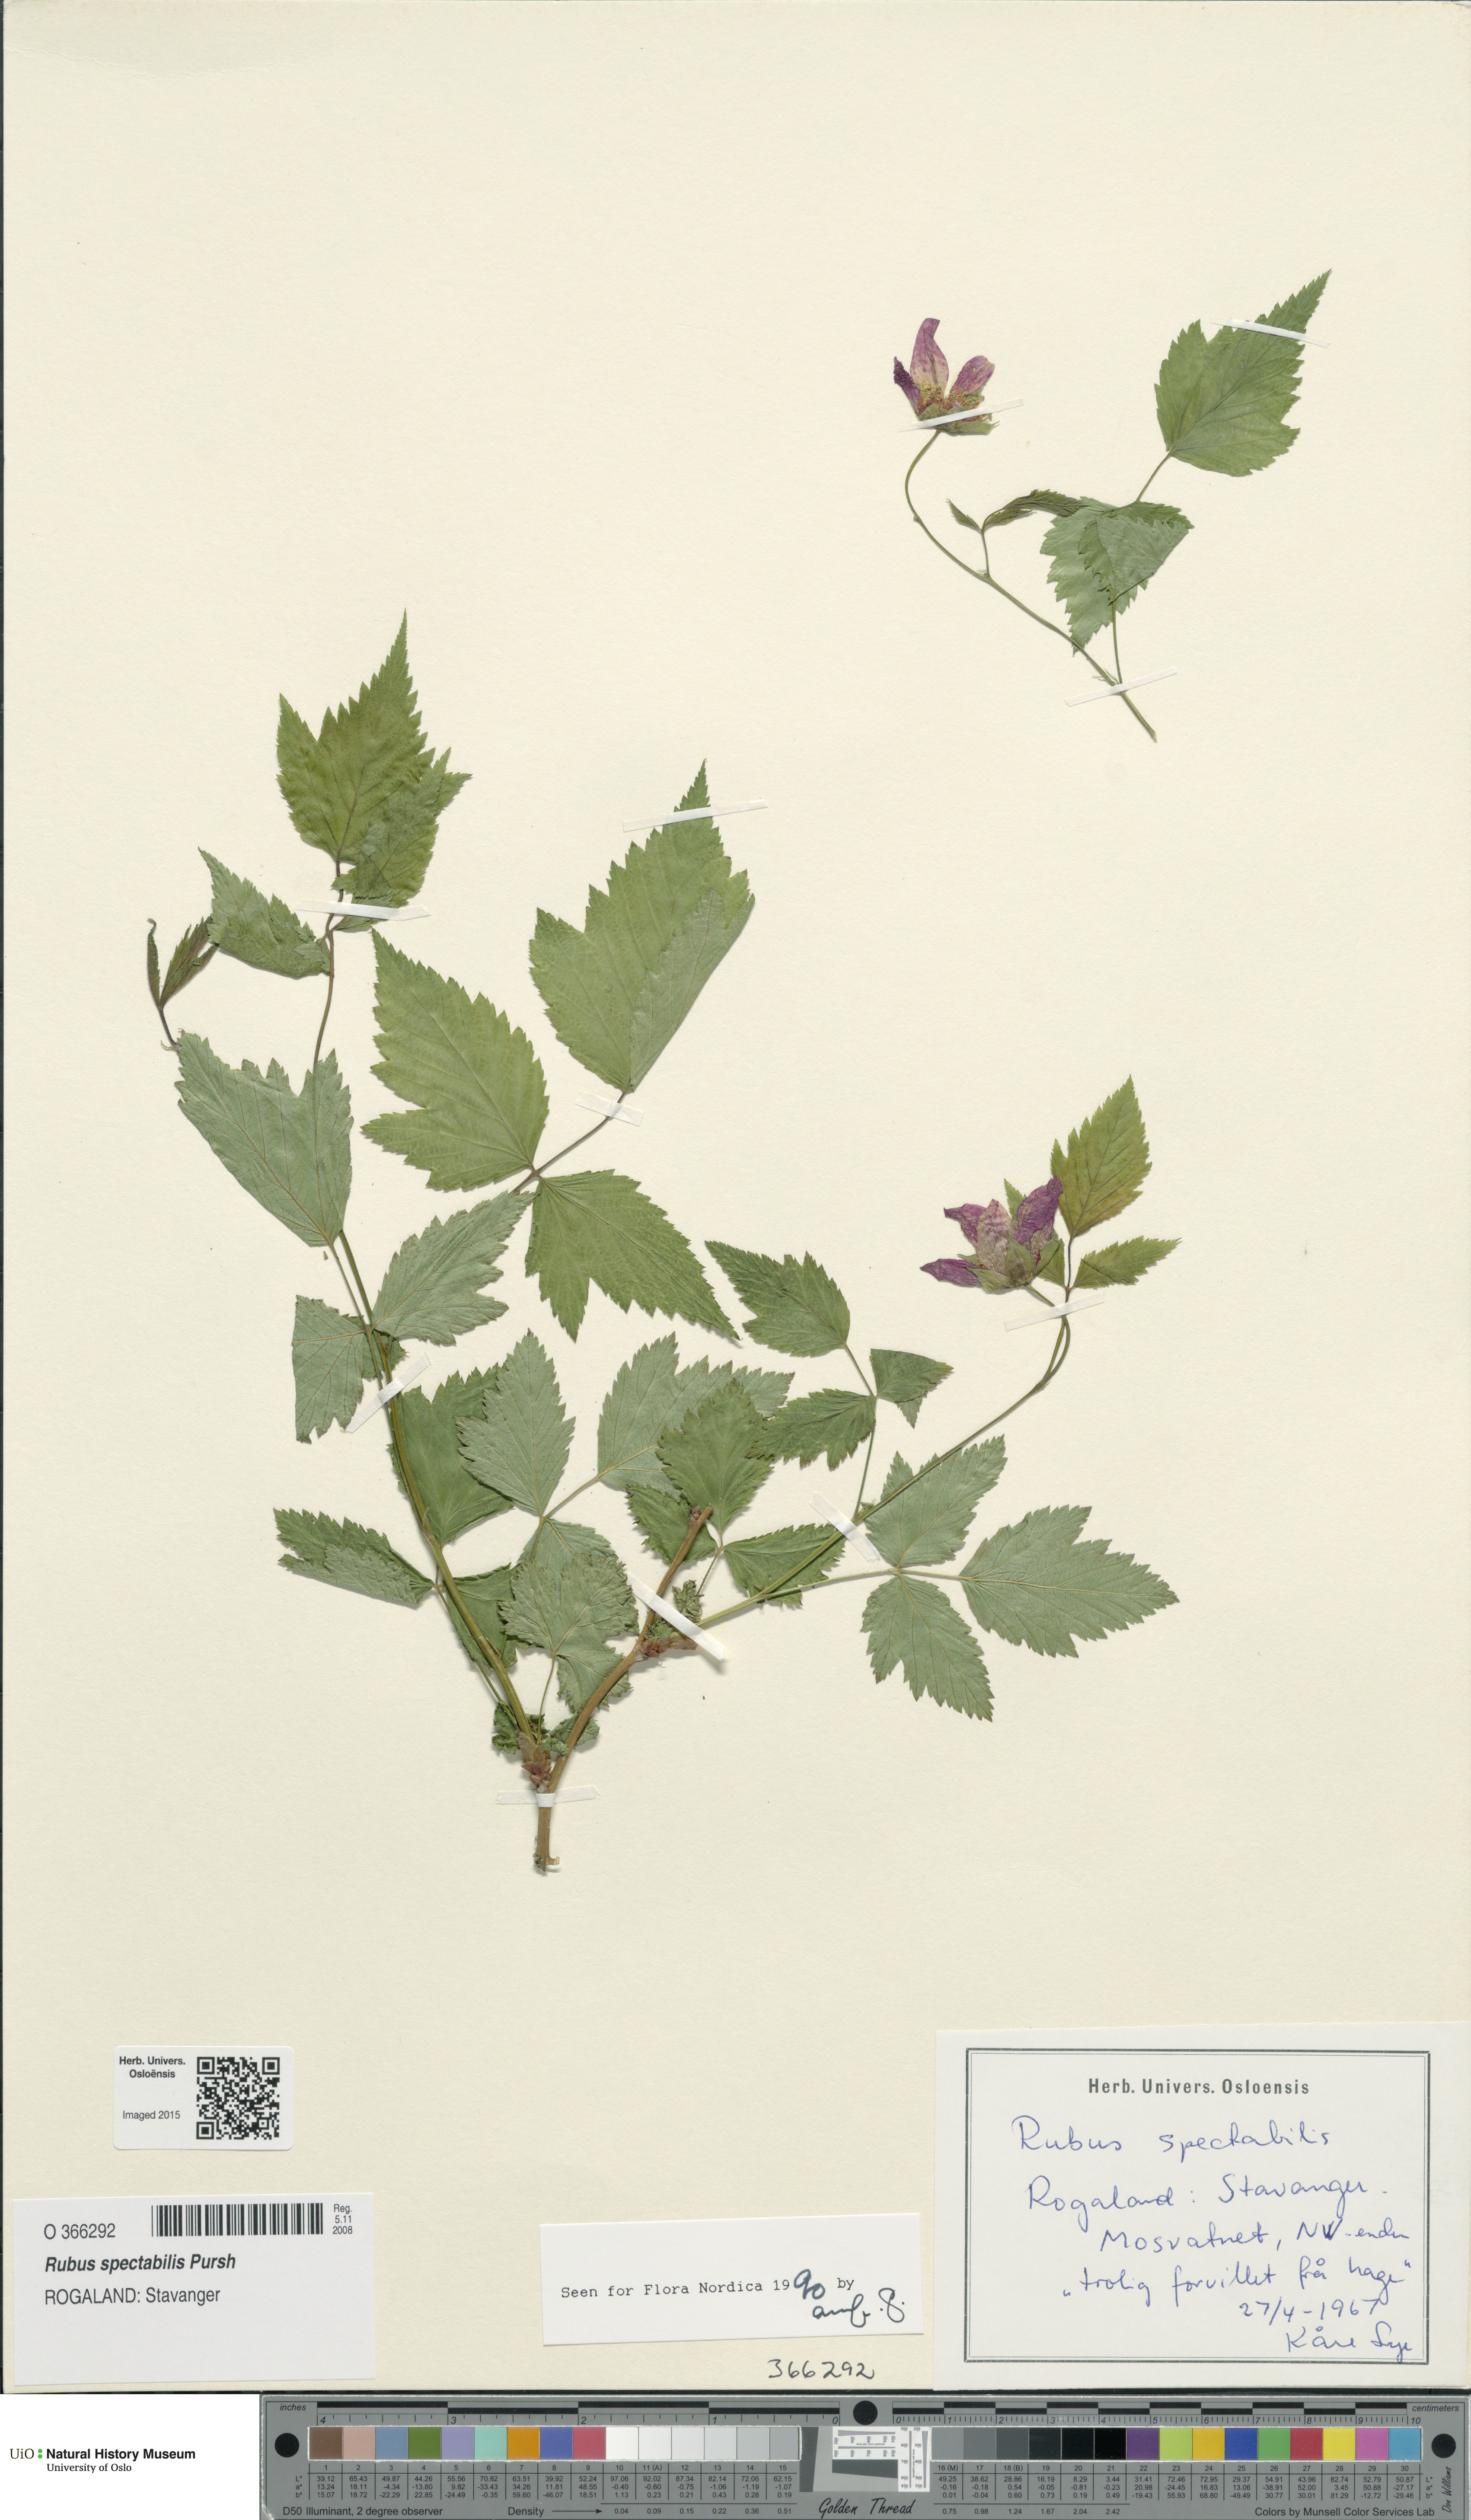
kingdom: Plantae
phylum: Tracheophyta
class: Magnoliopsida
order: Rosales
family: Rosaceae
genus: Rubus
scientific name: Rubus spectabilis
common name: Salmonberry
